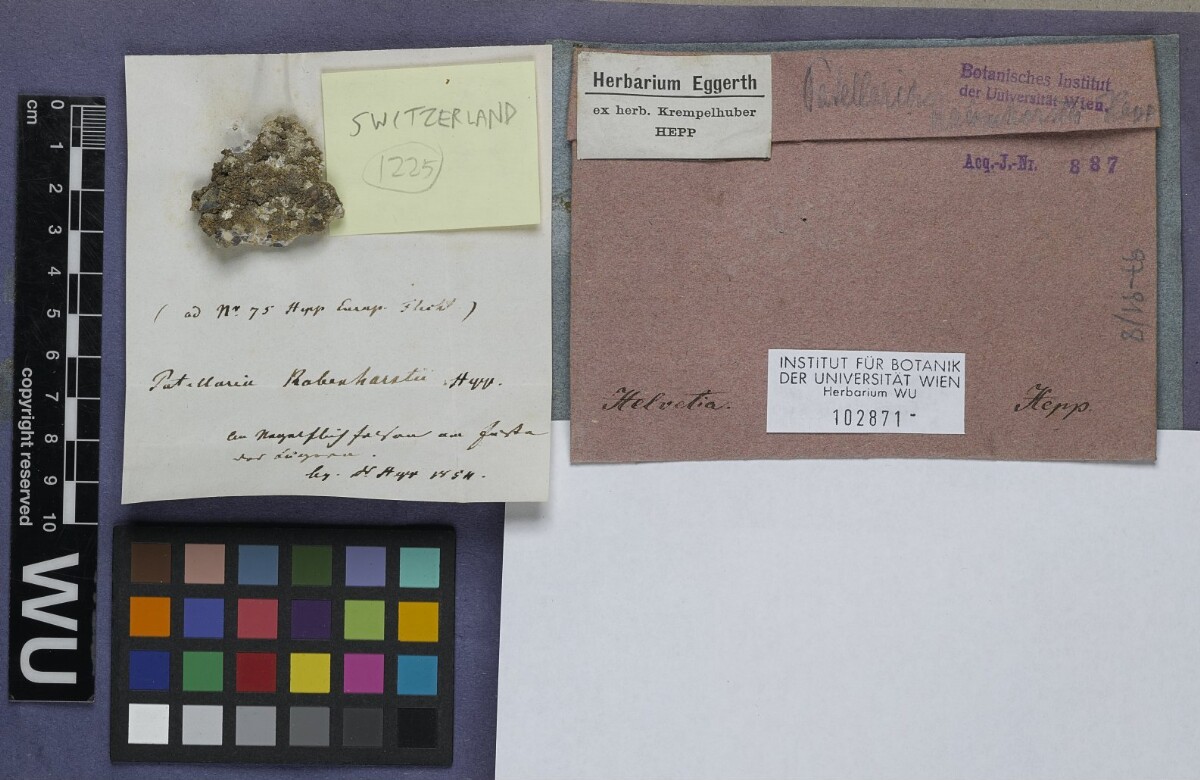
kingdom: Fungi
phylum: Ascomycota
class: Lecanoromycetes
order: Lecanorales
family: Ramalinaceae
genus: Lecania
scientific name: Lecania rabenhorstii
